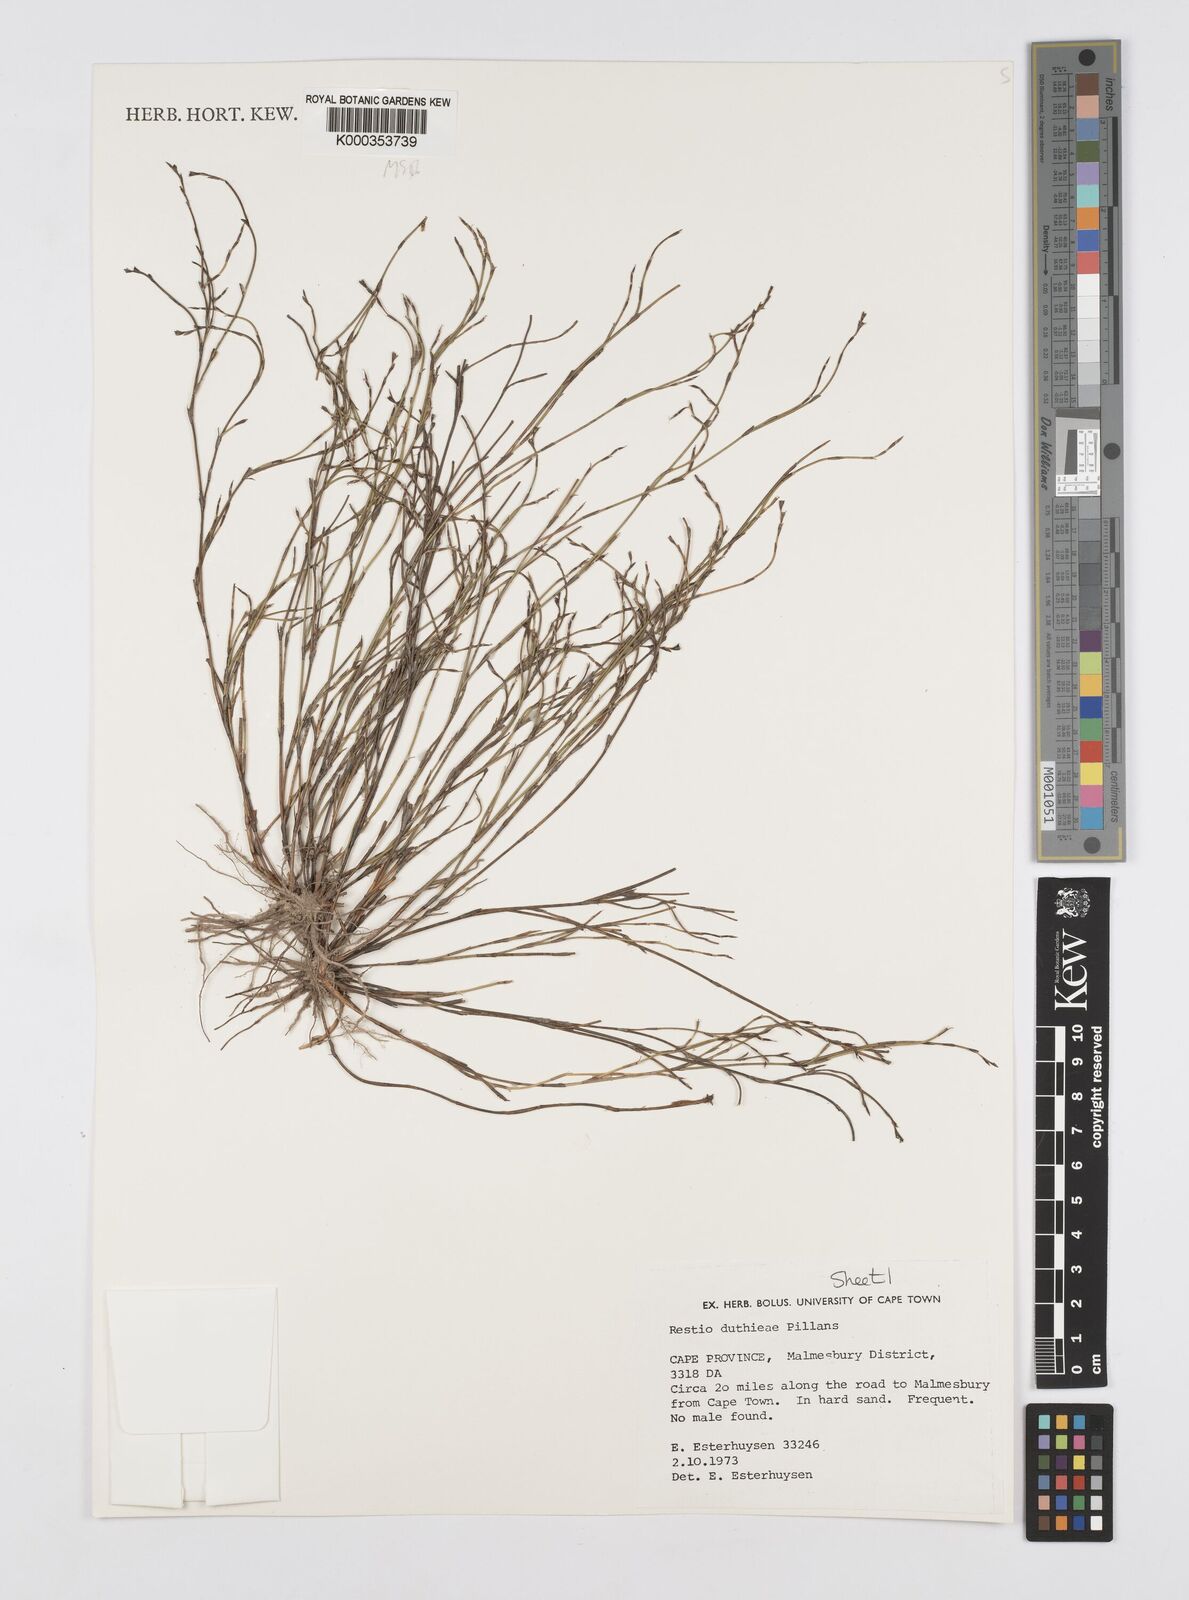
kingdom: Plantae
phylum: Tracheophyta
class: Liliopsida
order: Poales
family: Restionaceae
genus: Restio
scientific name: Restio duthieae
